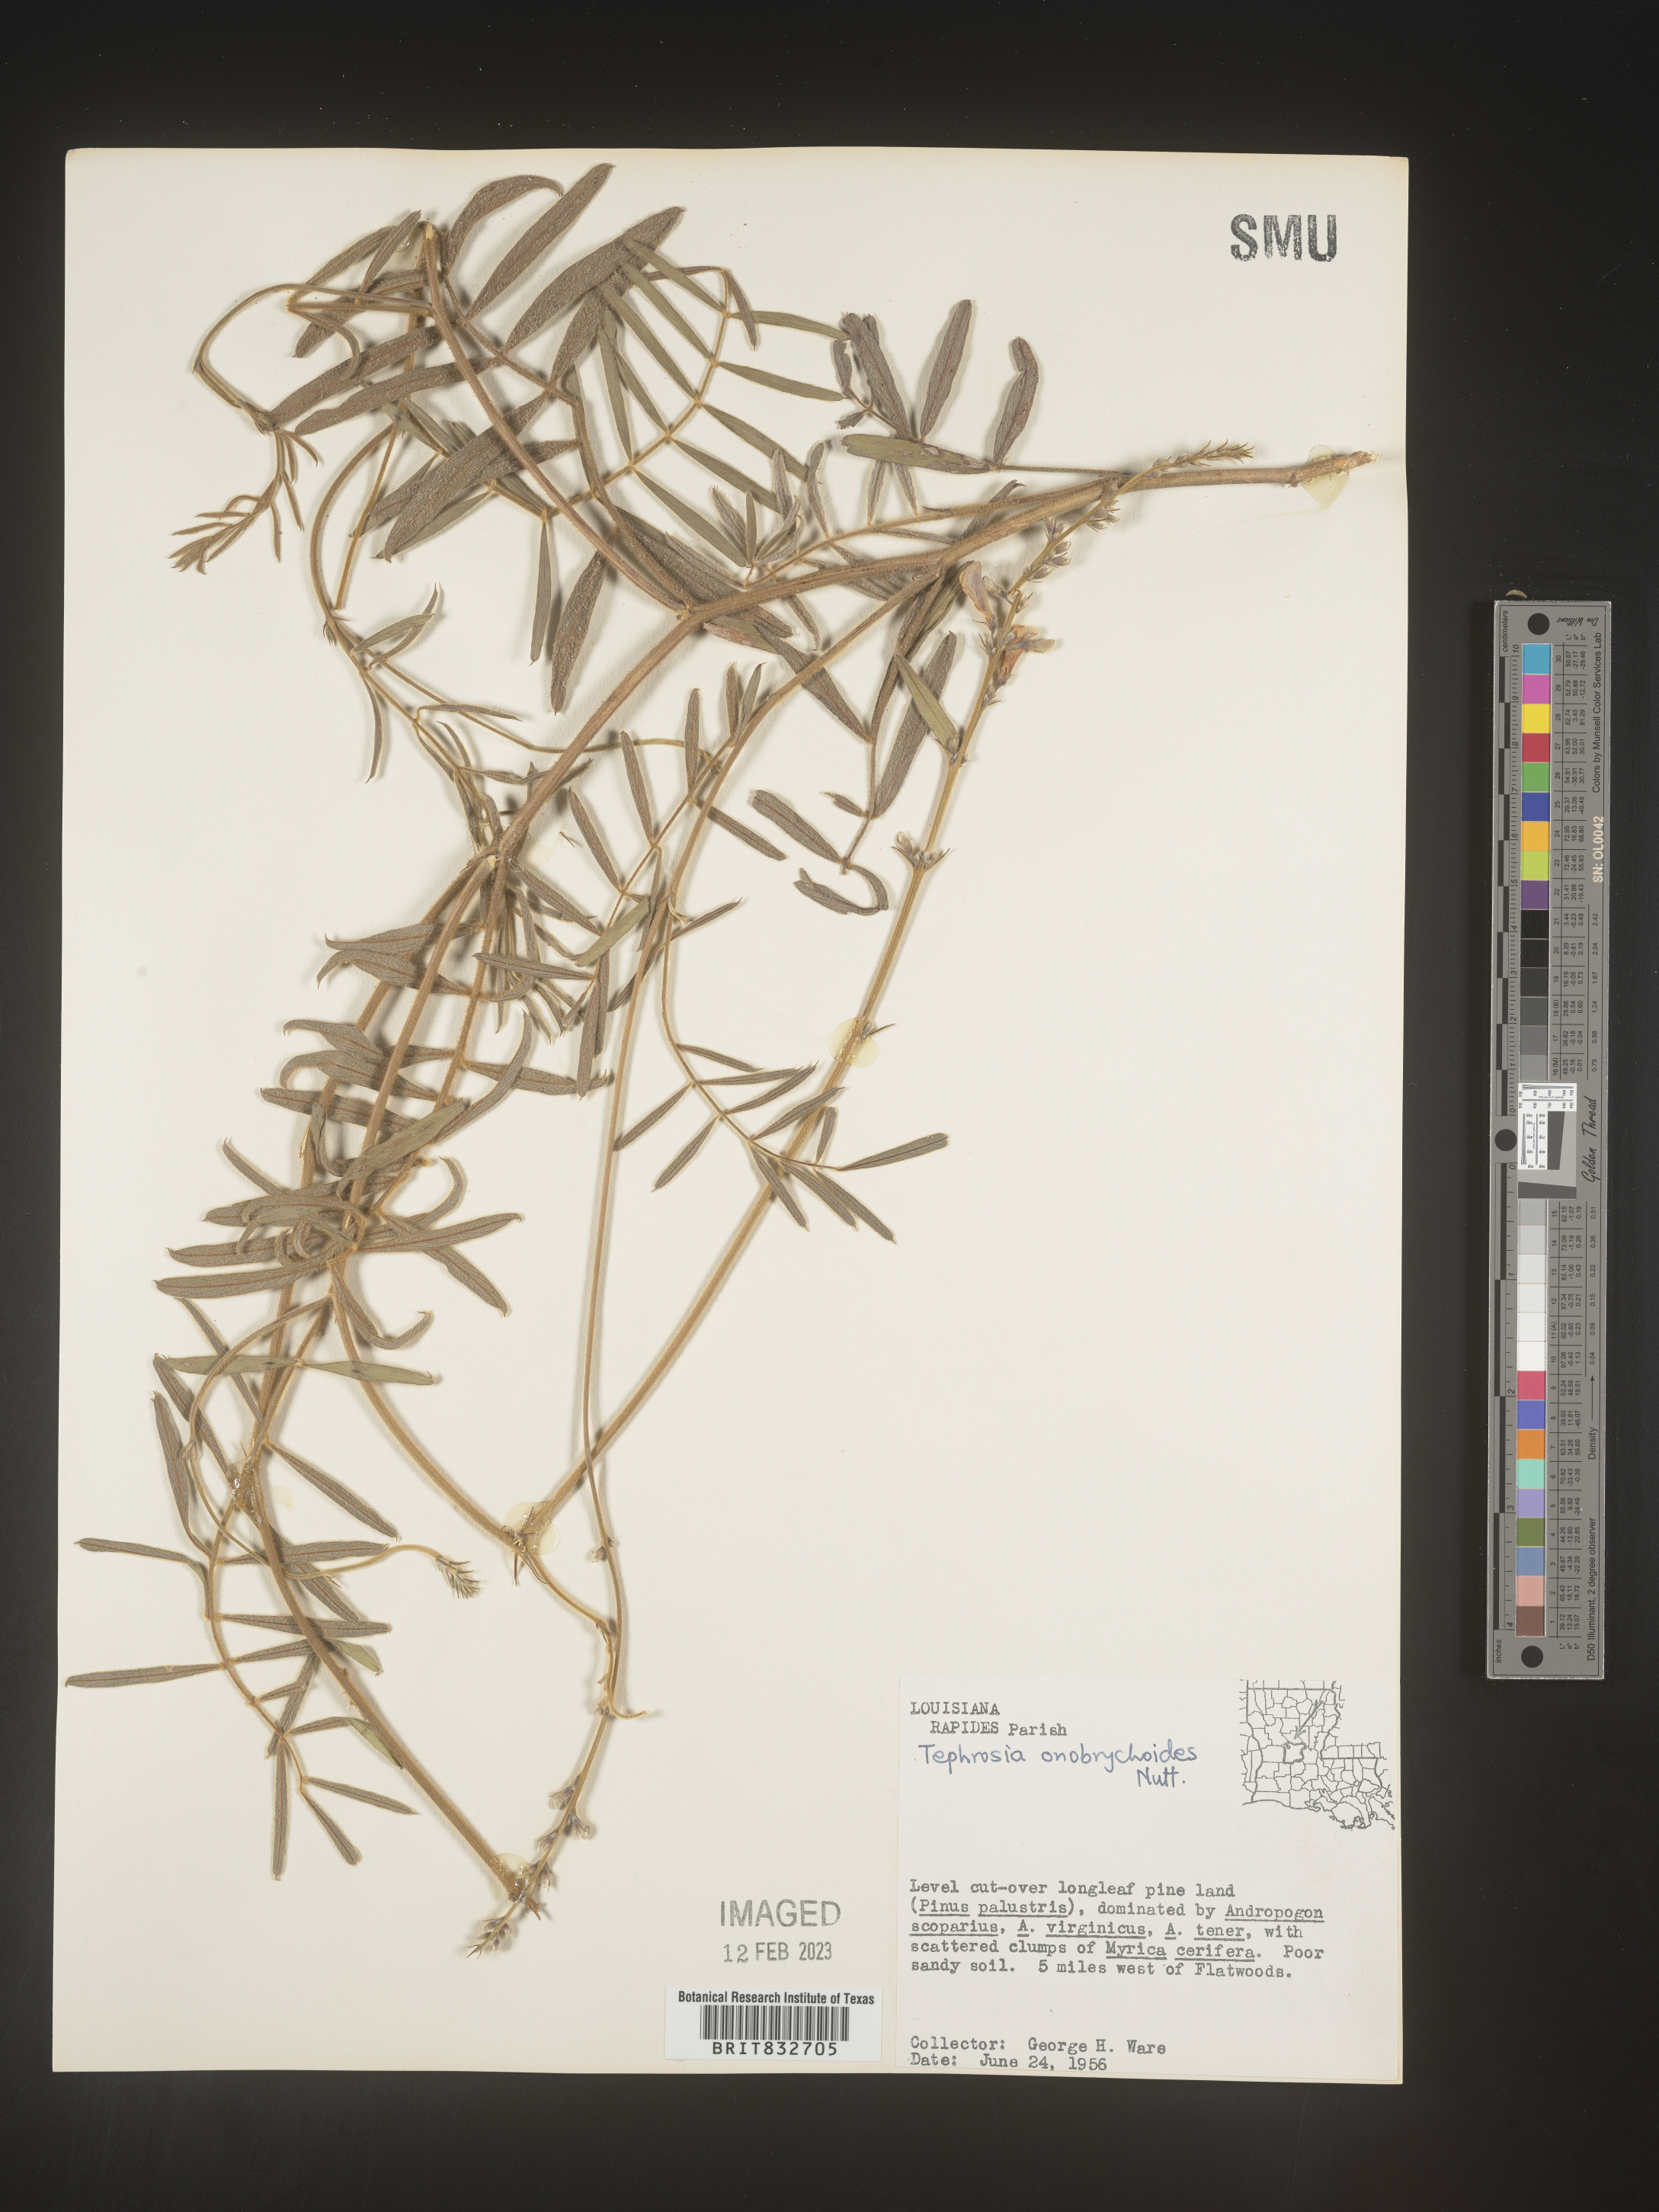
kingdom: Plantae
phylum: Tracheophyta
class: Magnoliopsida
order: Fabales
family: Fabaceae
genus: Tephrosia
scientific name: Tephrosia onobrychoides
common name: Multi-bloom hoary-pea
